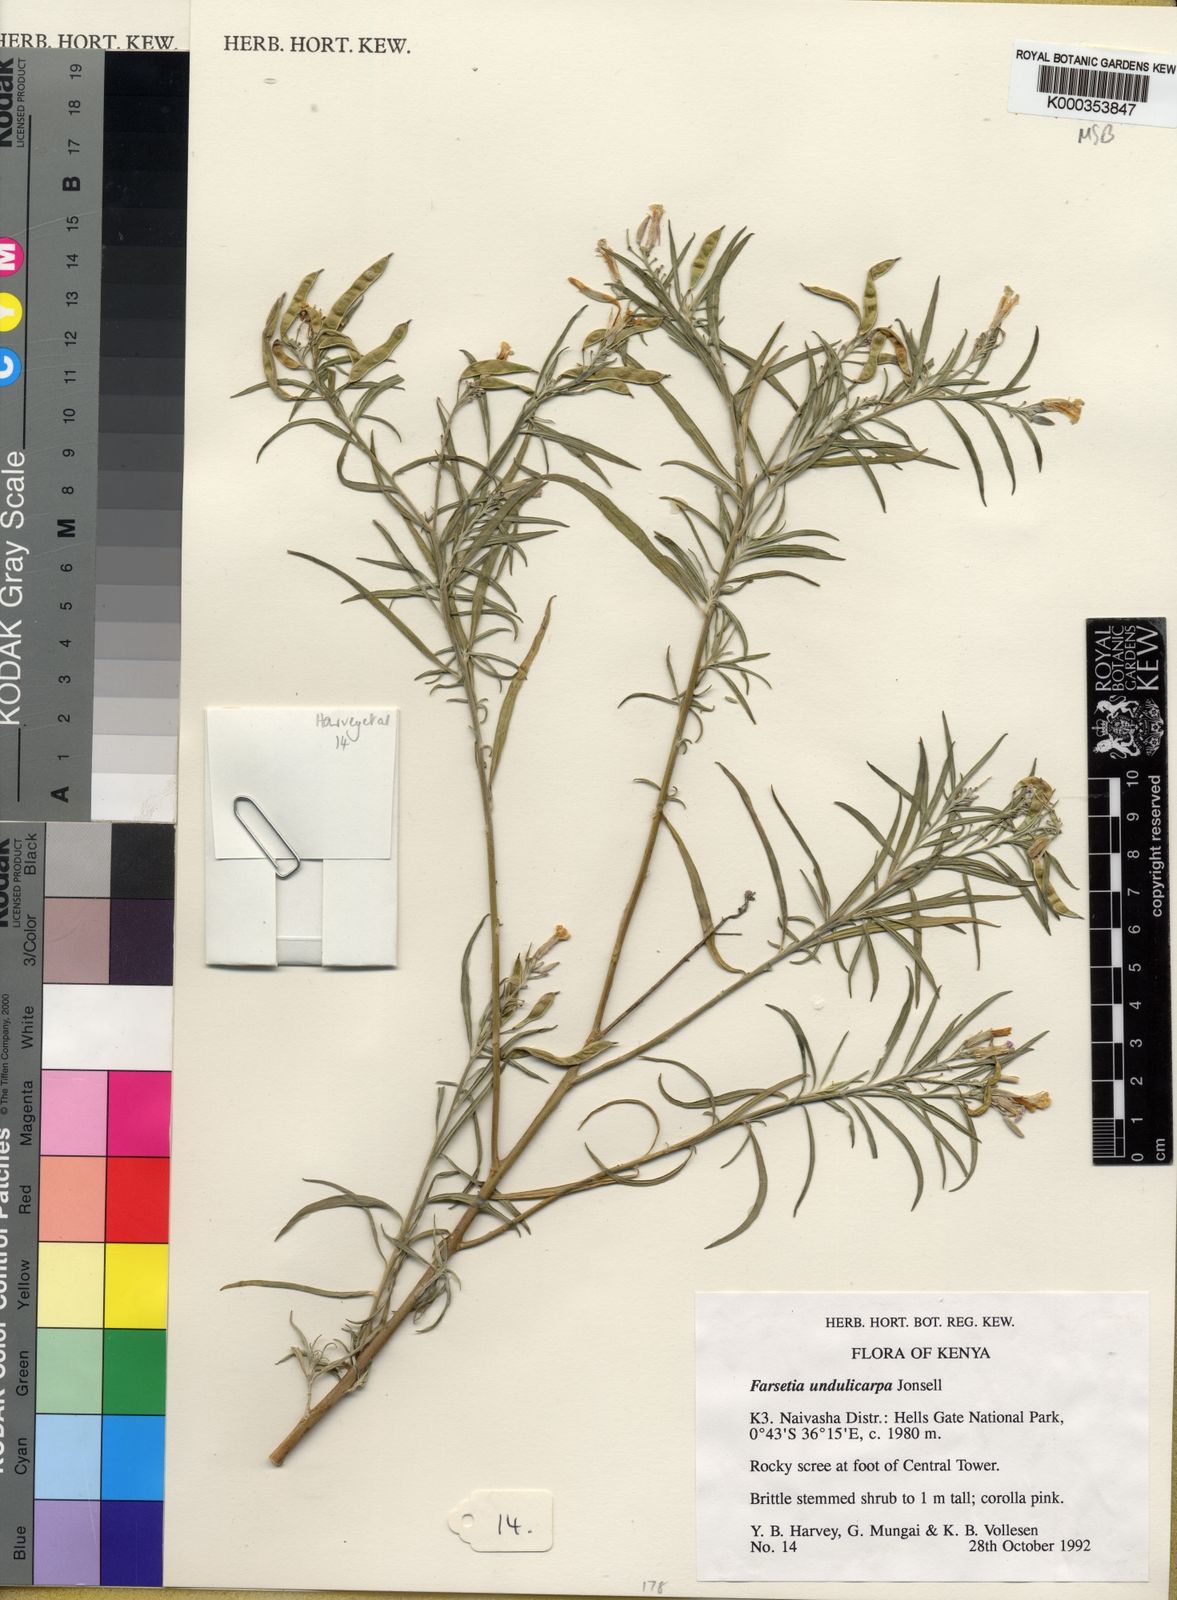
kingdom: Plantae
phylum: Tracheophyta
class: Magnoliopsida
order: Brassicales
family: Brassicaceae
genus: Farsetia
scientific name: Farsetia undulicarpa
